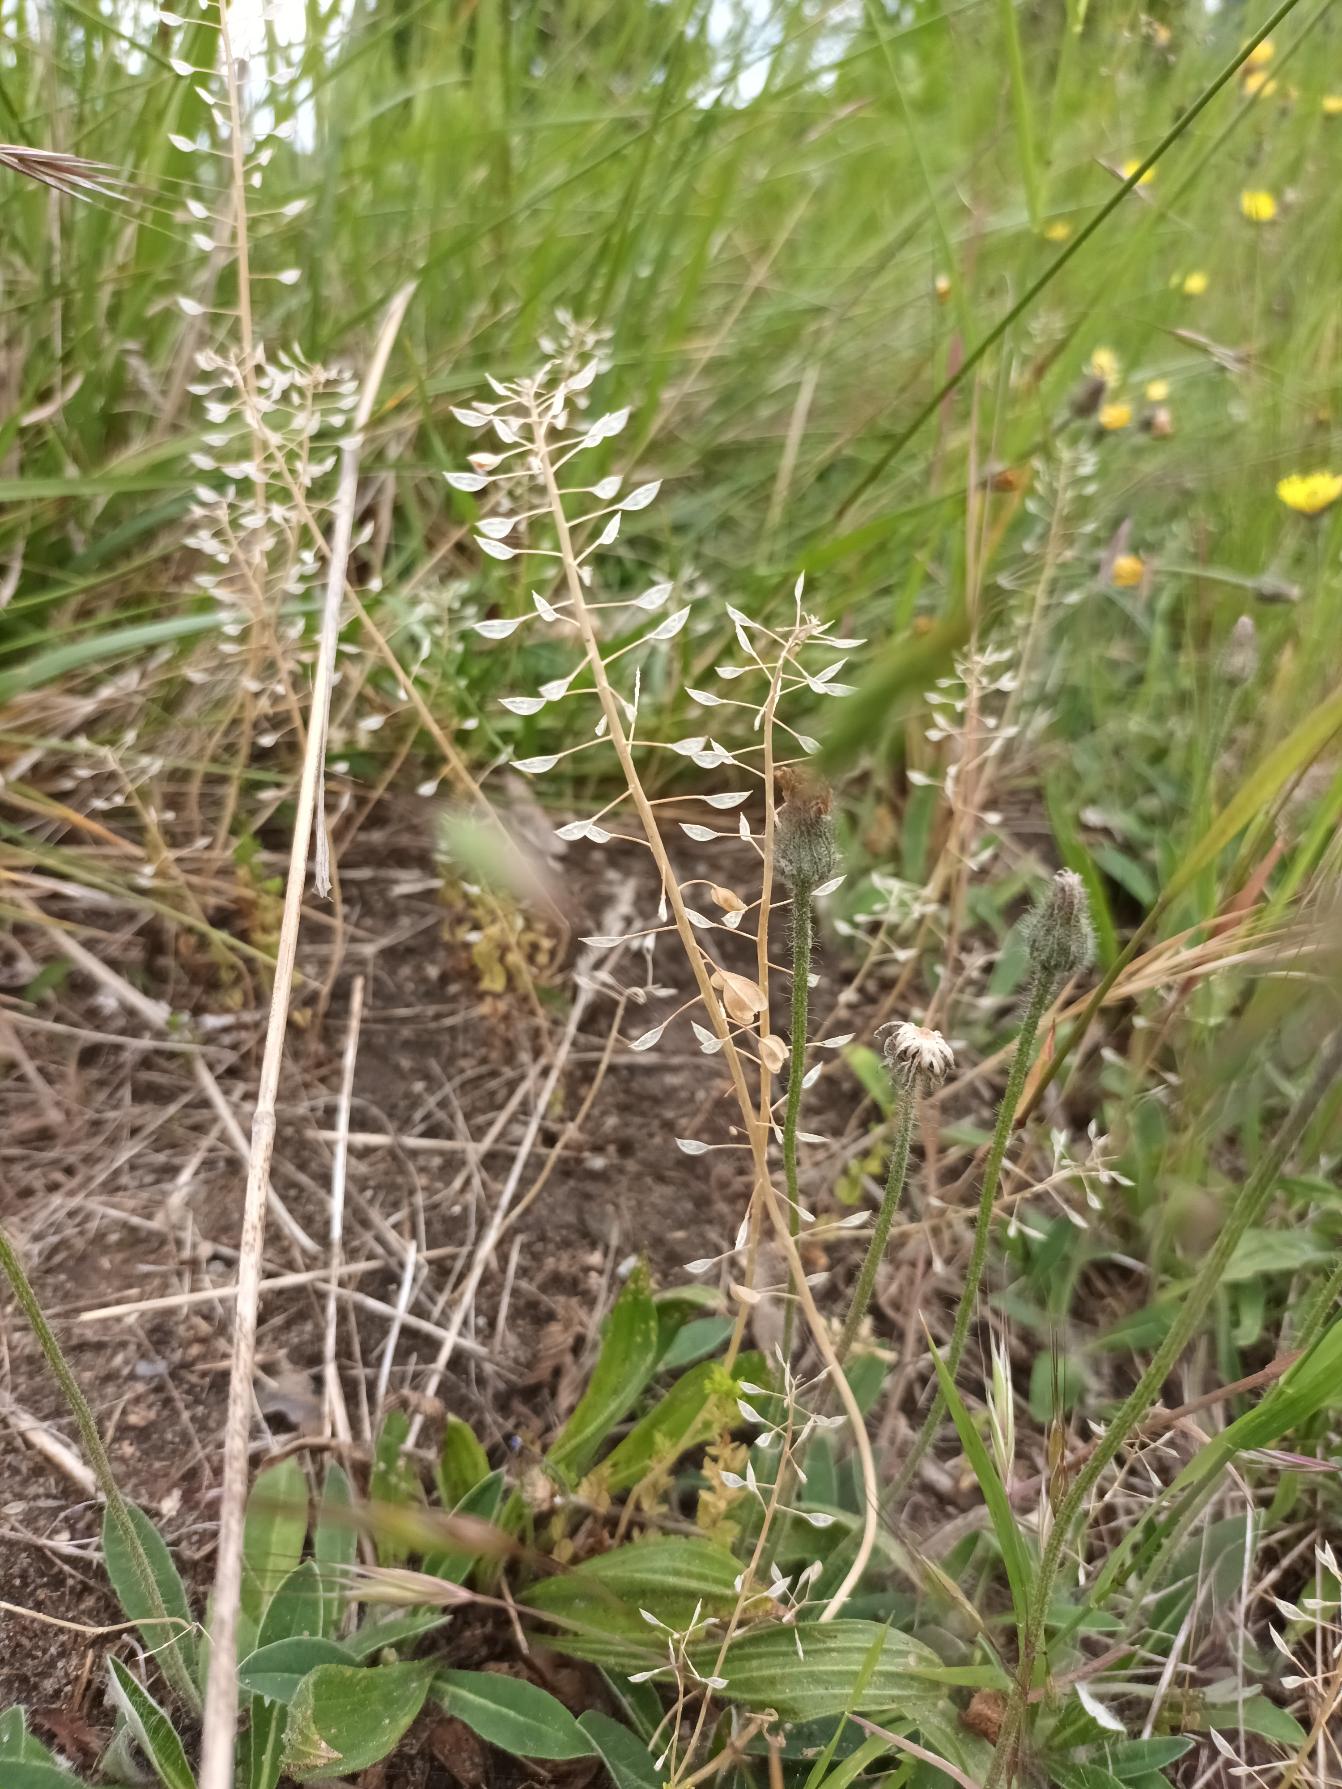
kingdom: Plantae
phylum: Tracheophyta
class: Magnoliopsida
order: Brassicales
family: Brassicaceae
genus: Noccaea
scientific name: Noccaea perfoliata
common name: Hjertebladet pengeurt
